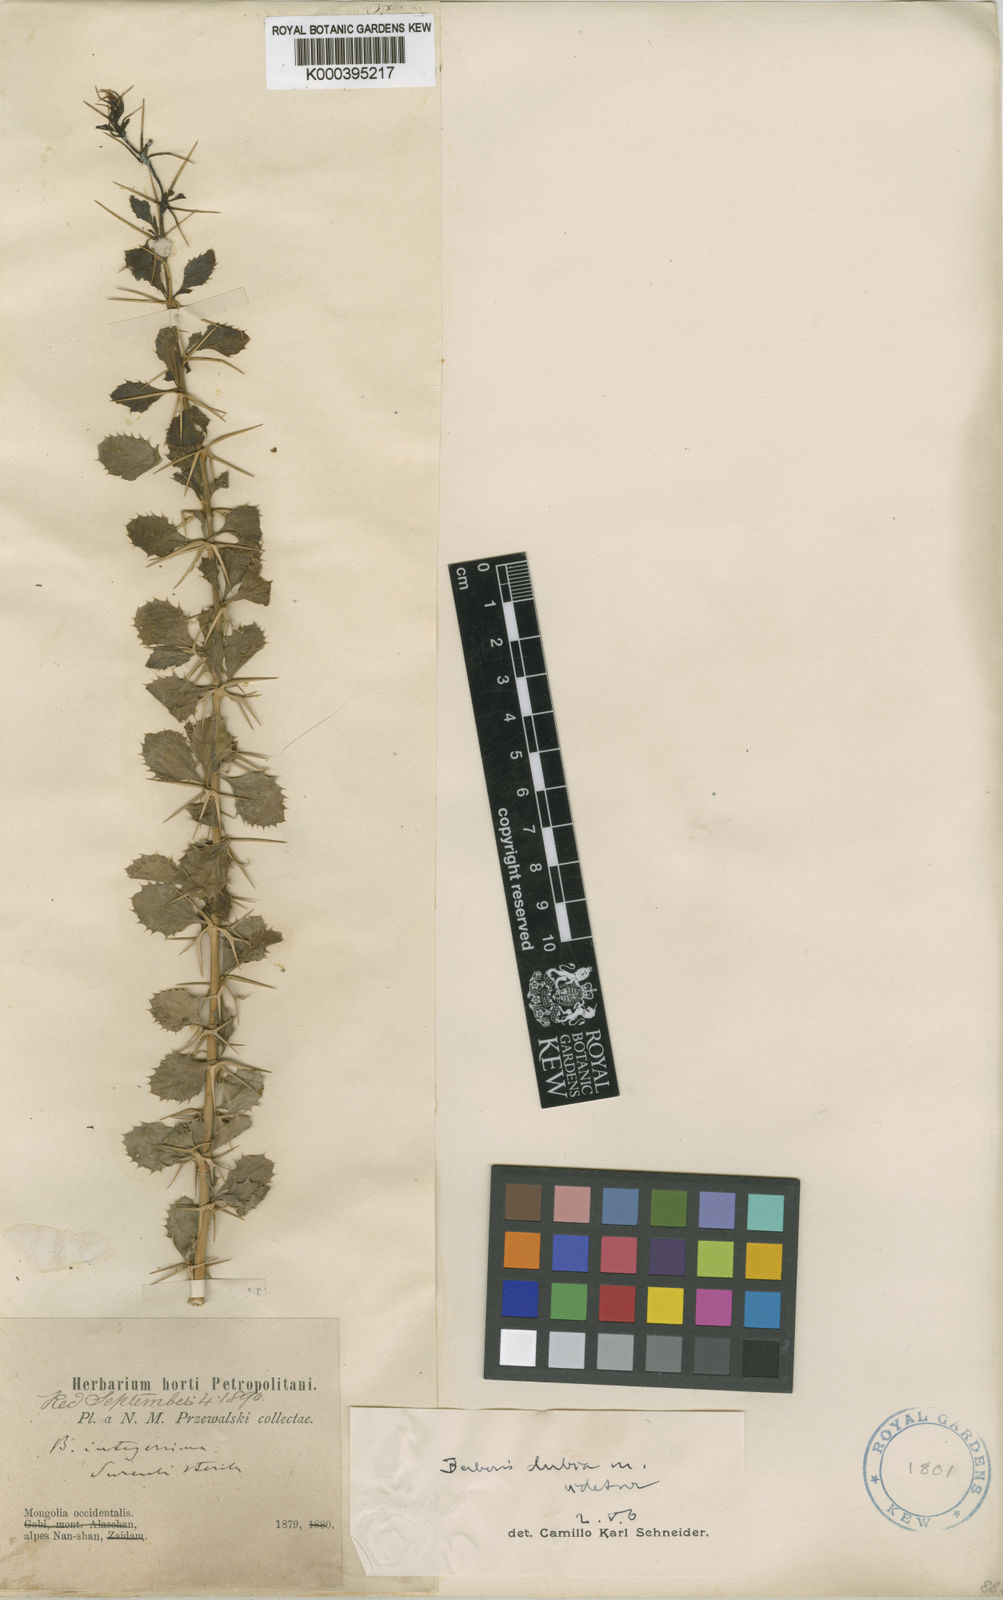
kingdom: Plantae
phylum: Tracheophyta
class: Magnoliopsida
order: Ranunculales
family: Berberidaceae
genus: Berberis
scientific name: Berberis dubia
